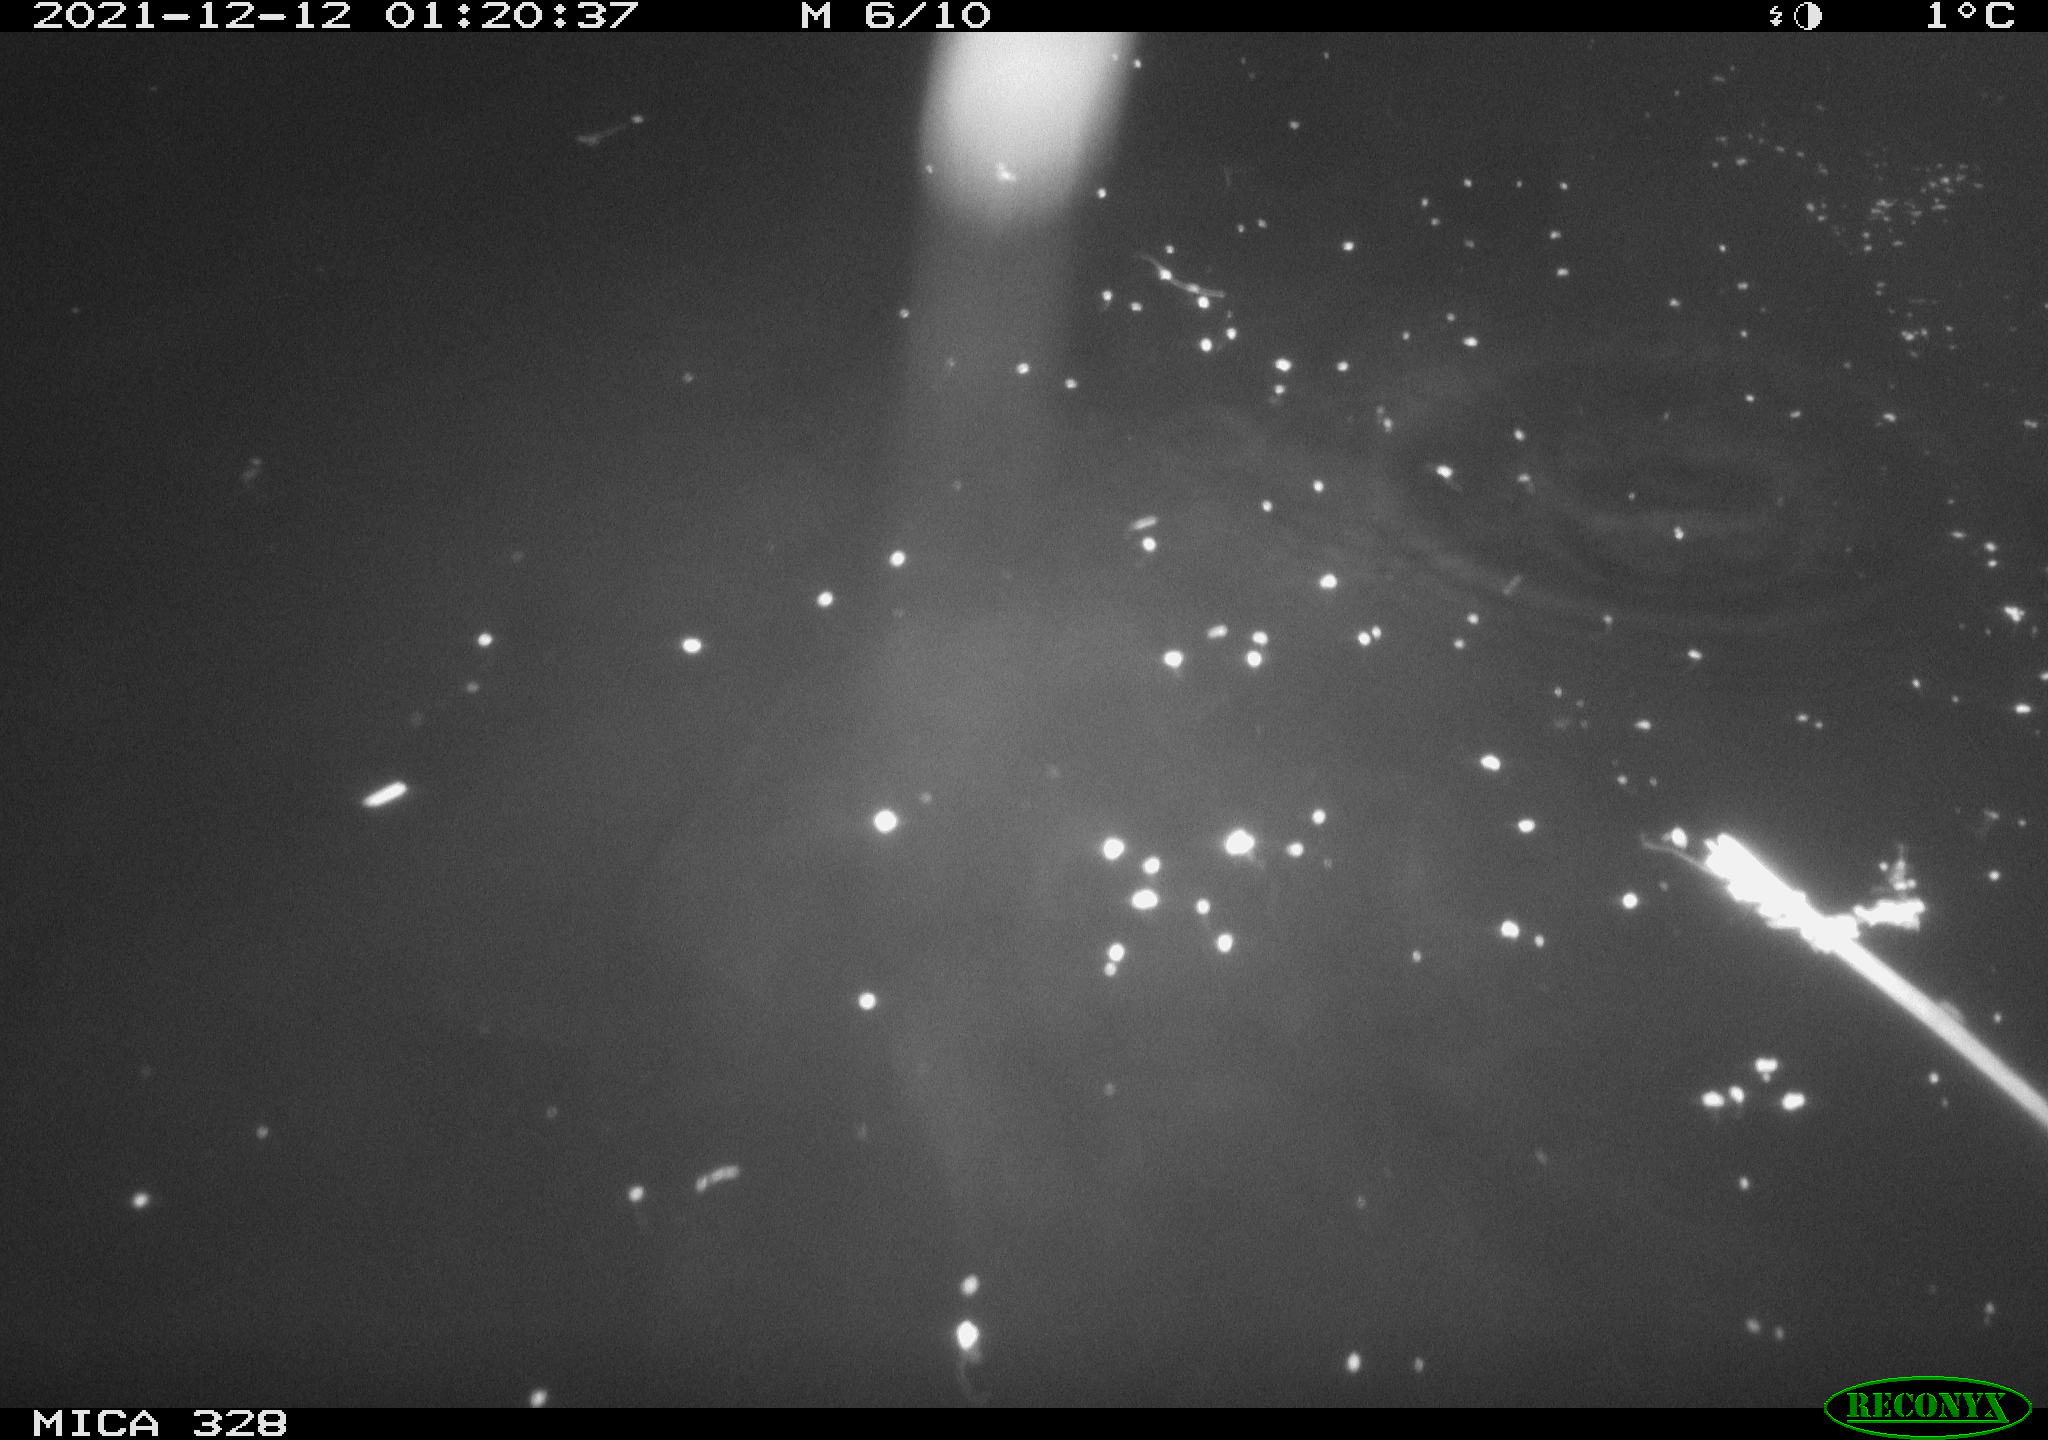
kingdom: Animalia
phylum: Chordata
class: Aves
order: Anseriformes
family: Anatidae
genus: Anas
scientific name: Anas platyrhynchos
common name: Mallard
